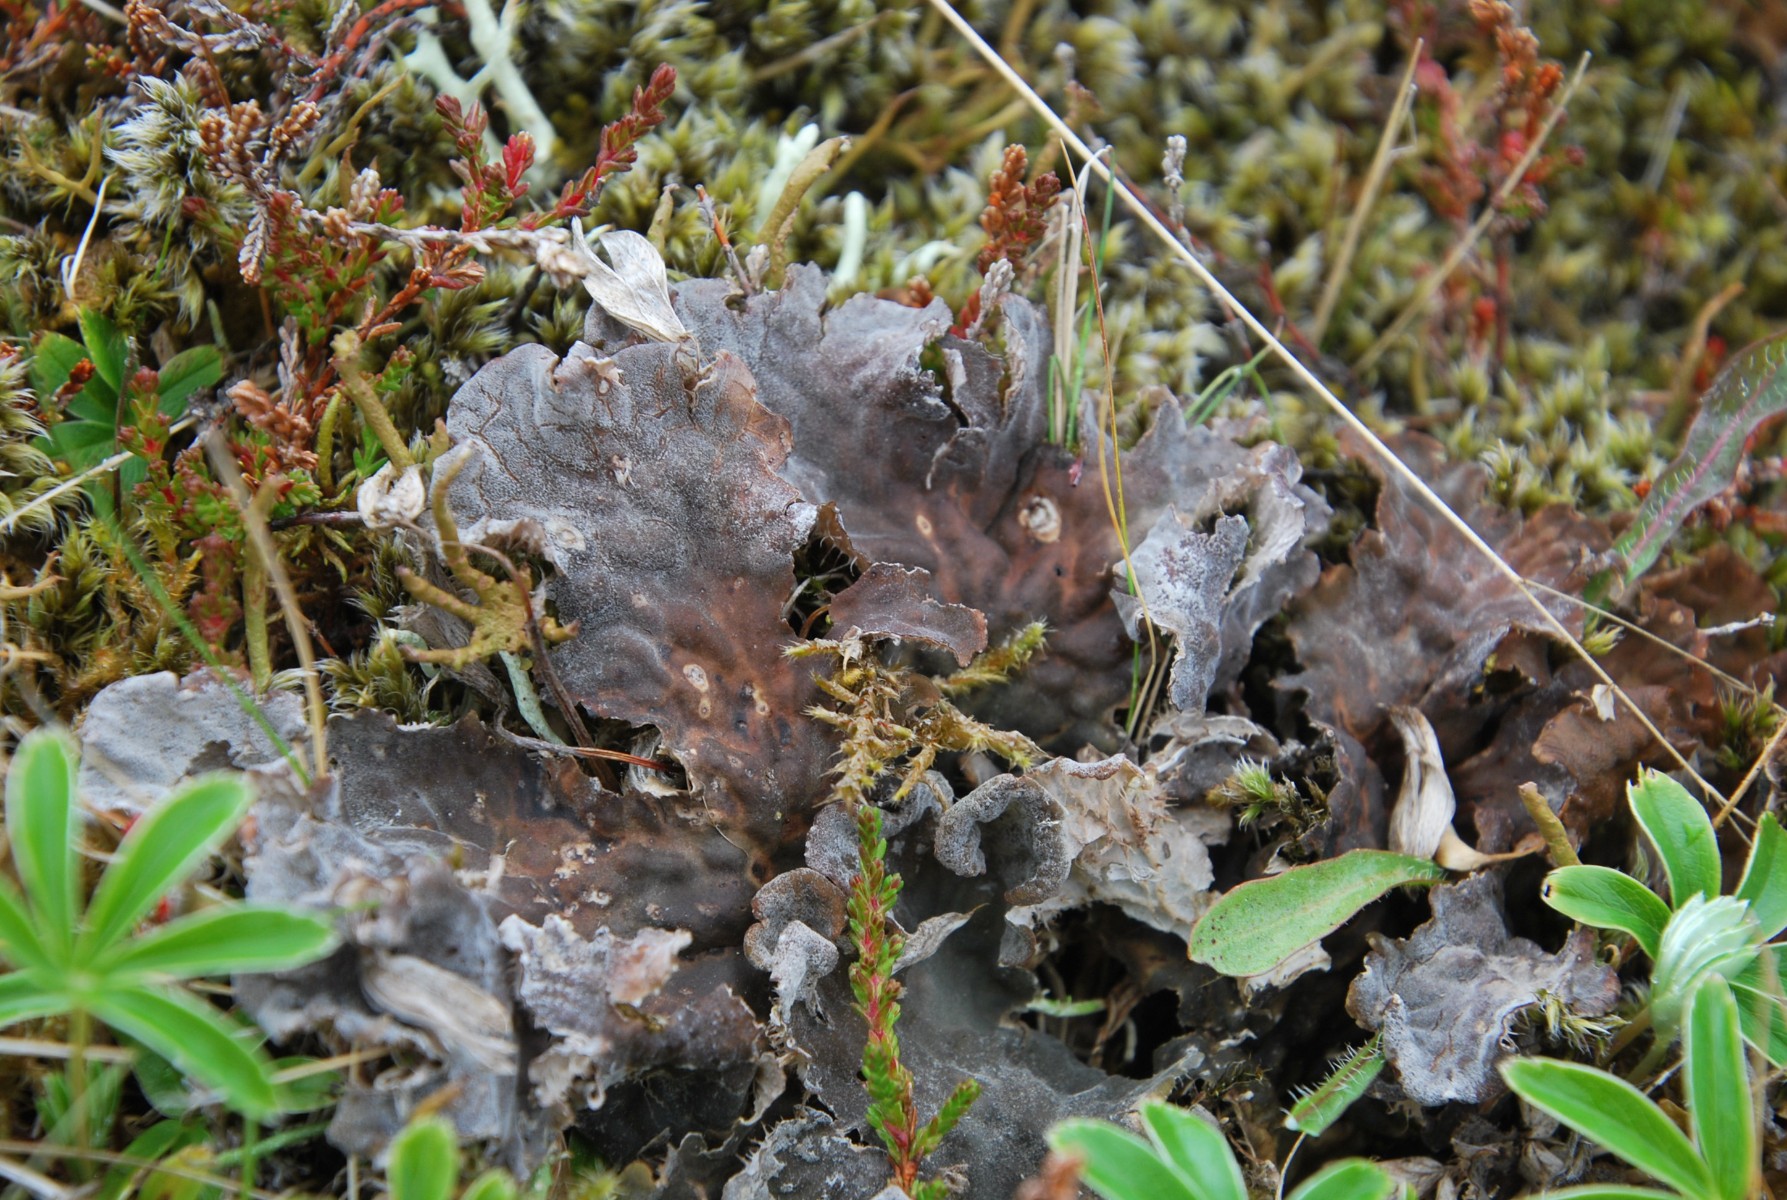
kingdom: Fungi
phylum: Ascomycota
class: Lecanoromycetes
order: Peltigerales
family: Peltigeraceae
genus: Peltigera
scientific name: Peltigera membranacea
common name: tynd skjoldlav
